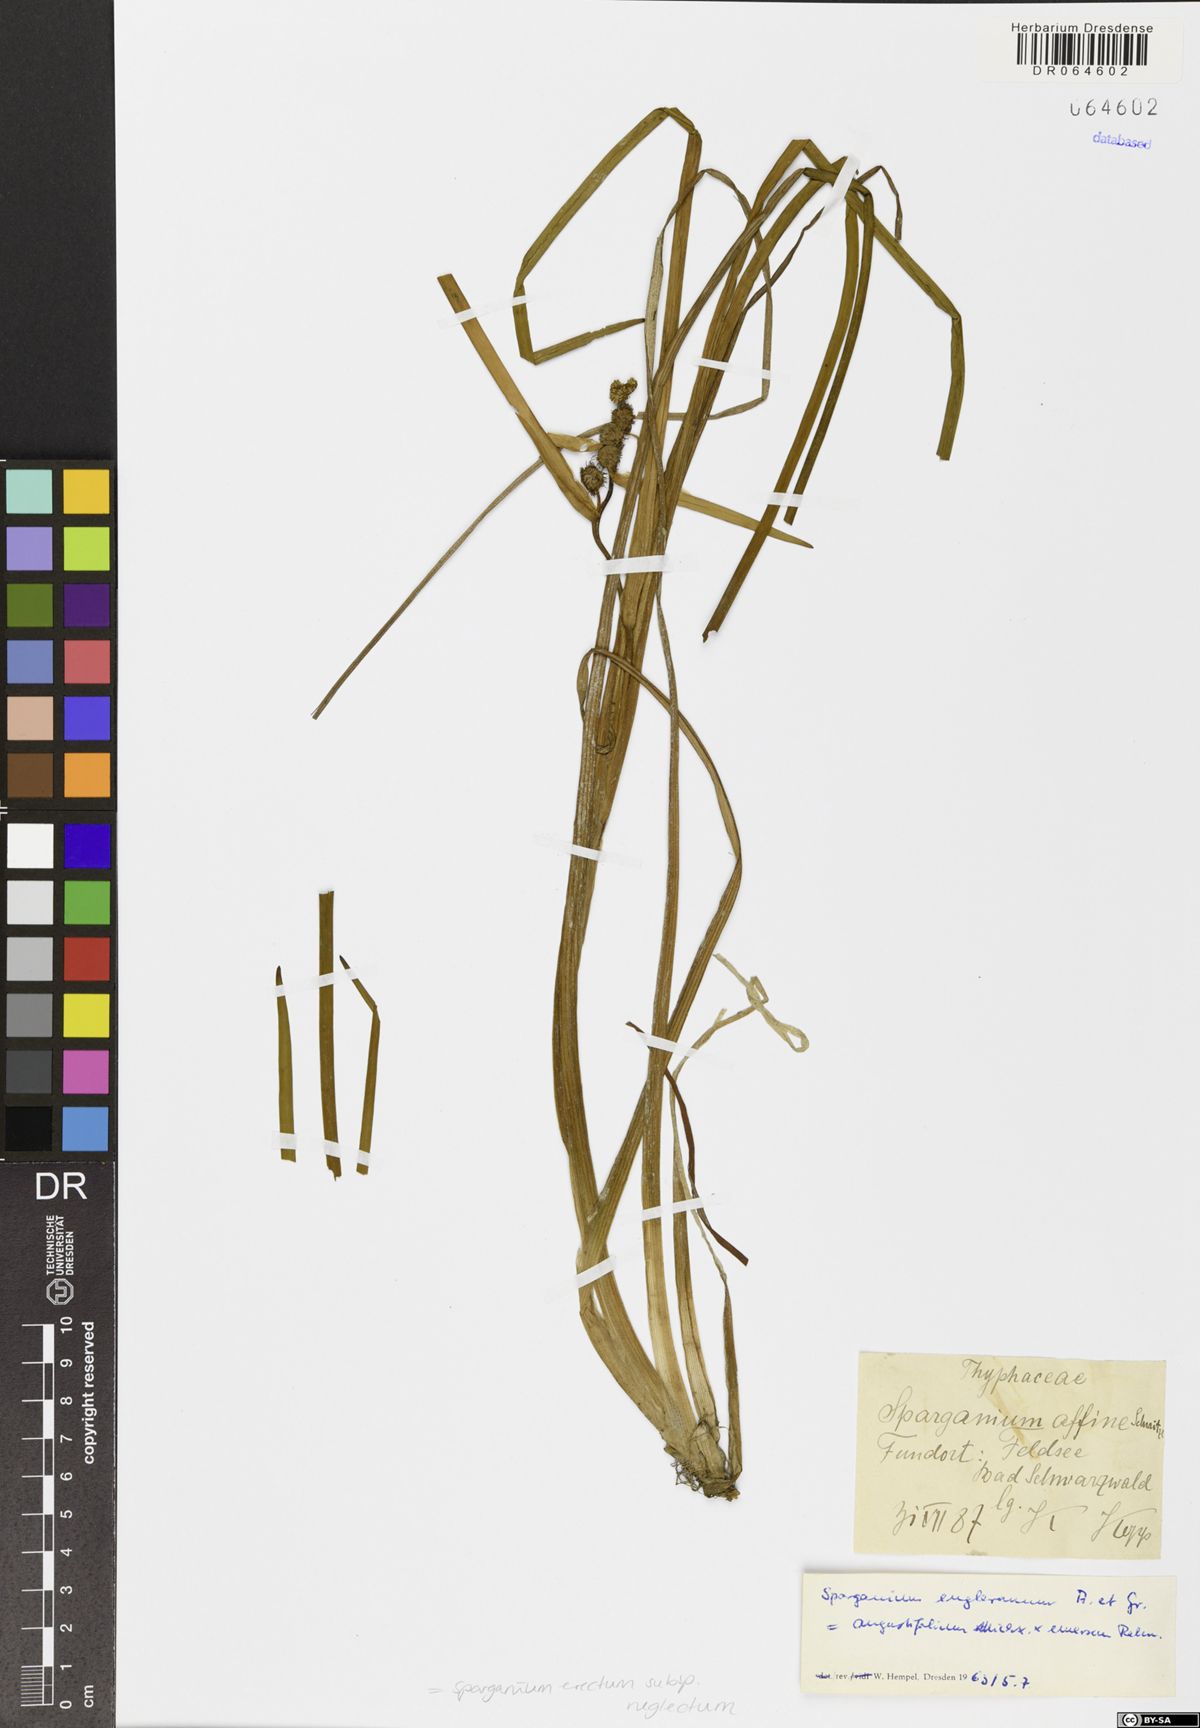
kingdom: Plantae
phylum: Tracheophyta
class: Liliopsida
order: Poales
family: Typhaceae
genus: Sparganium
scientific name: Sparganium erectum
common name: Branched bur-reed
